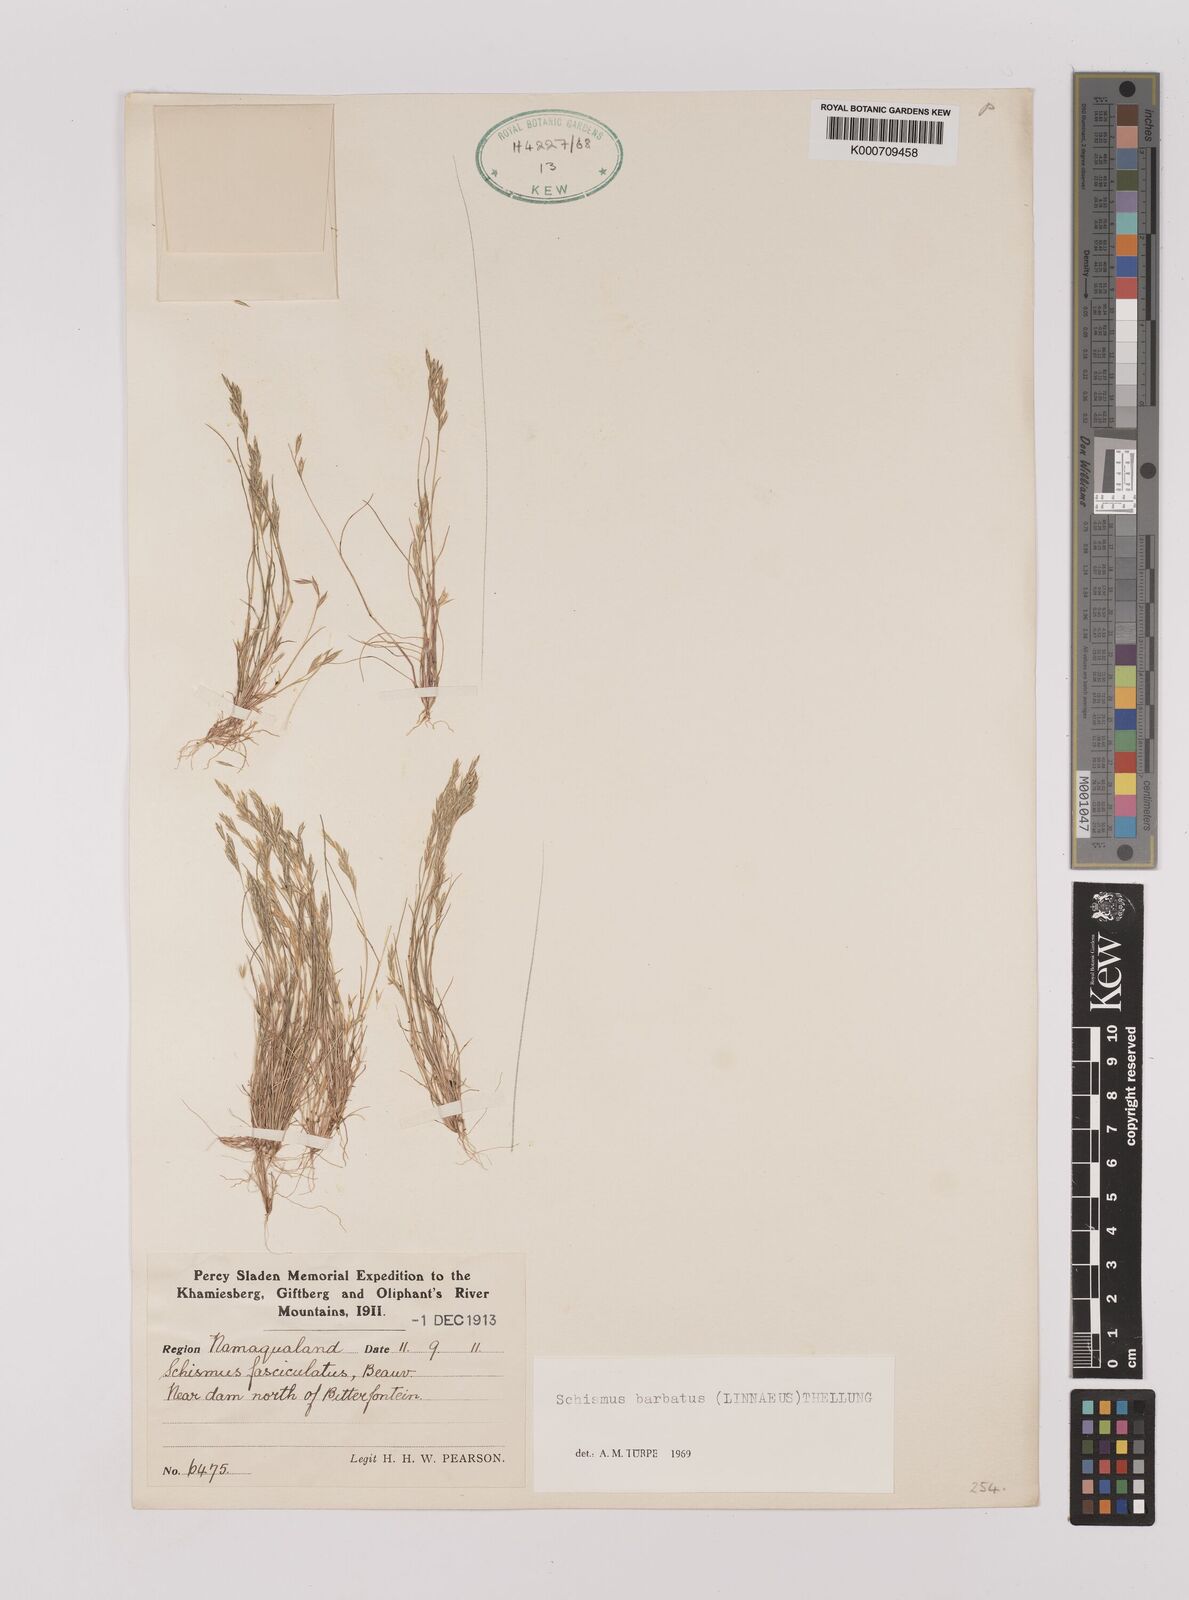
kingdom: Plantae
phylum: Tracheophyta
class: Liliopsida
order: Poales
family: Poaceae
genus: Schismus
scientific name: Schismus barbatus
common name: Kelch-grass
